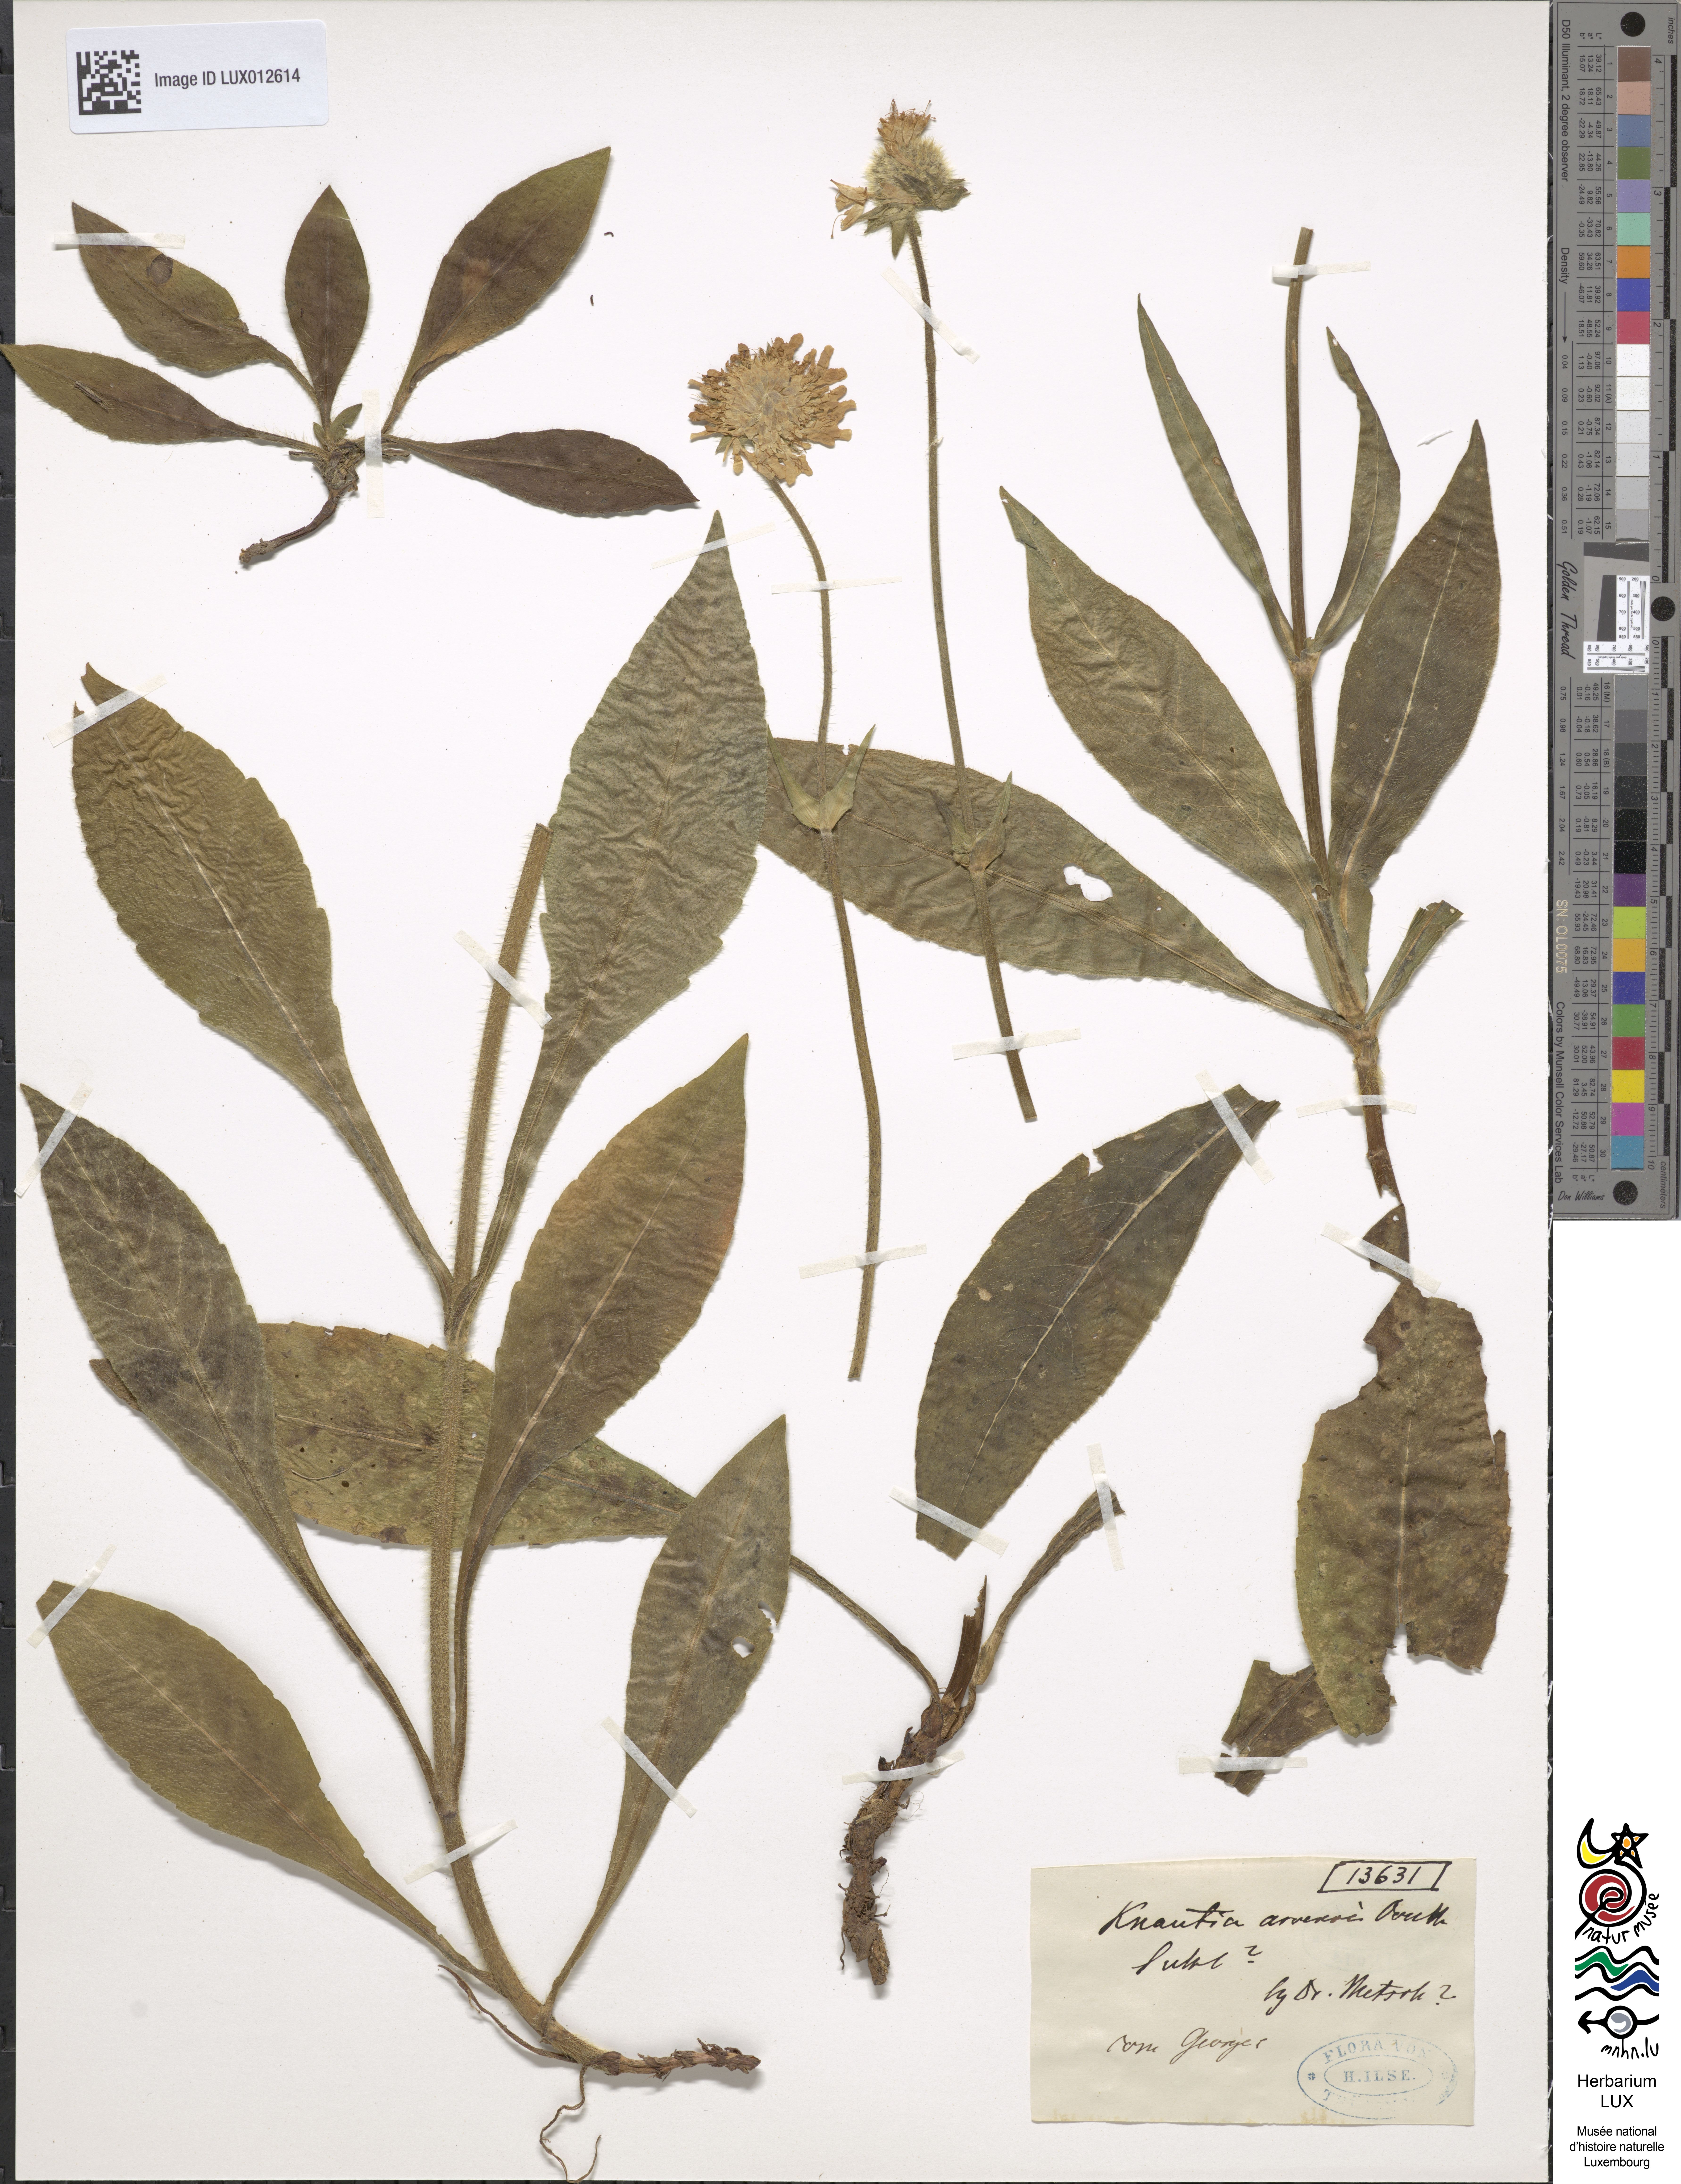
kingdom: Plantae
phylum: Tracheophyta
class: Magnoliopsida
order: Dipsacales
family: Caprifoliaceae
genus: Knautia
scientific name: Knautia arvensis
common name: Field scabiosa
